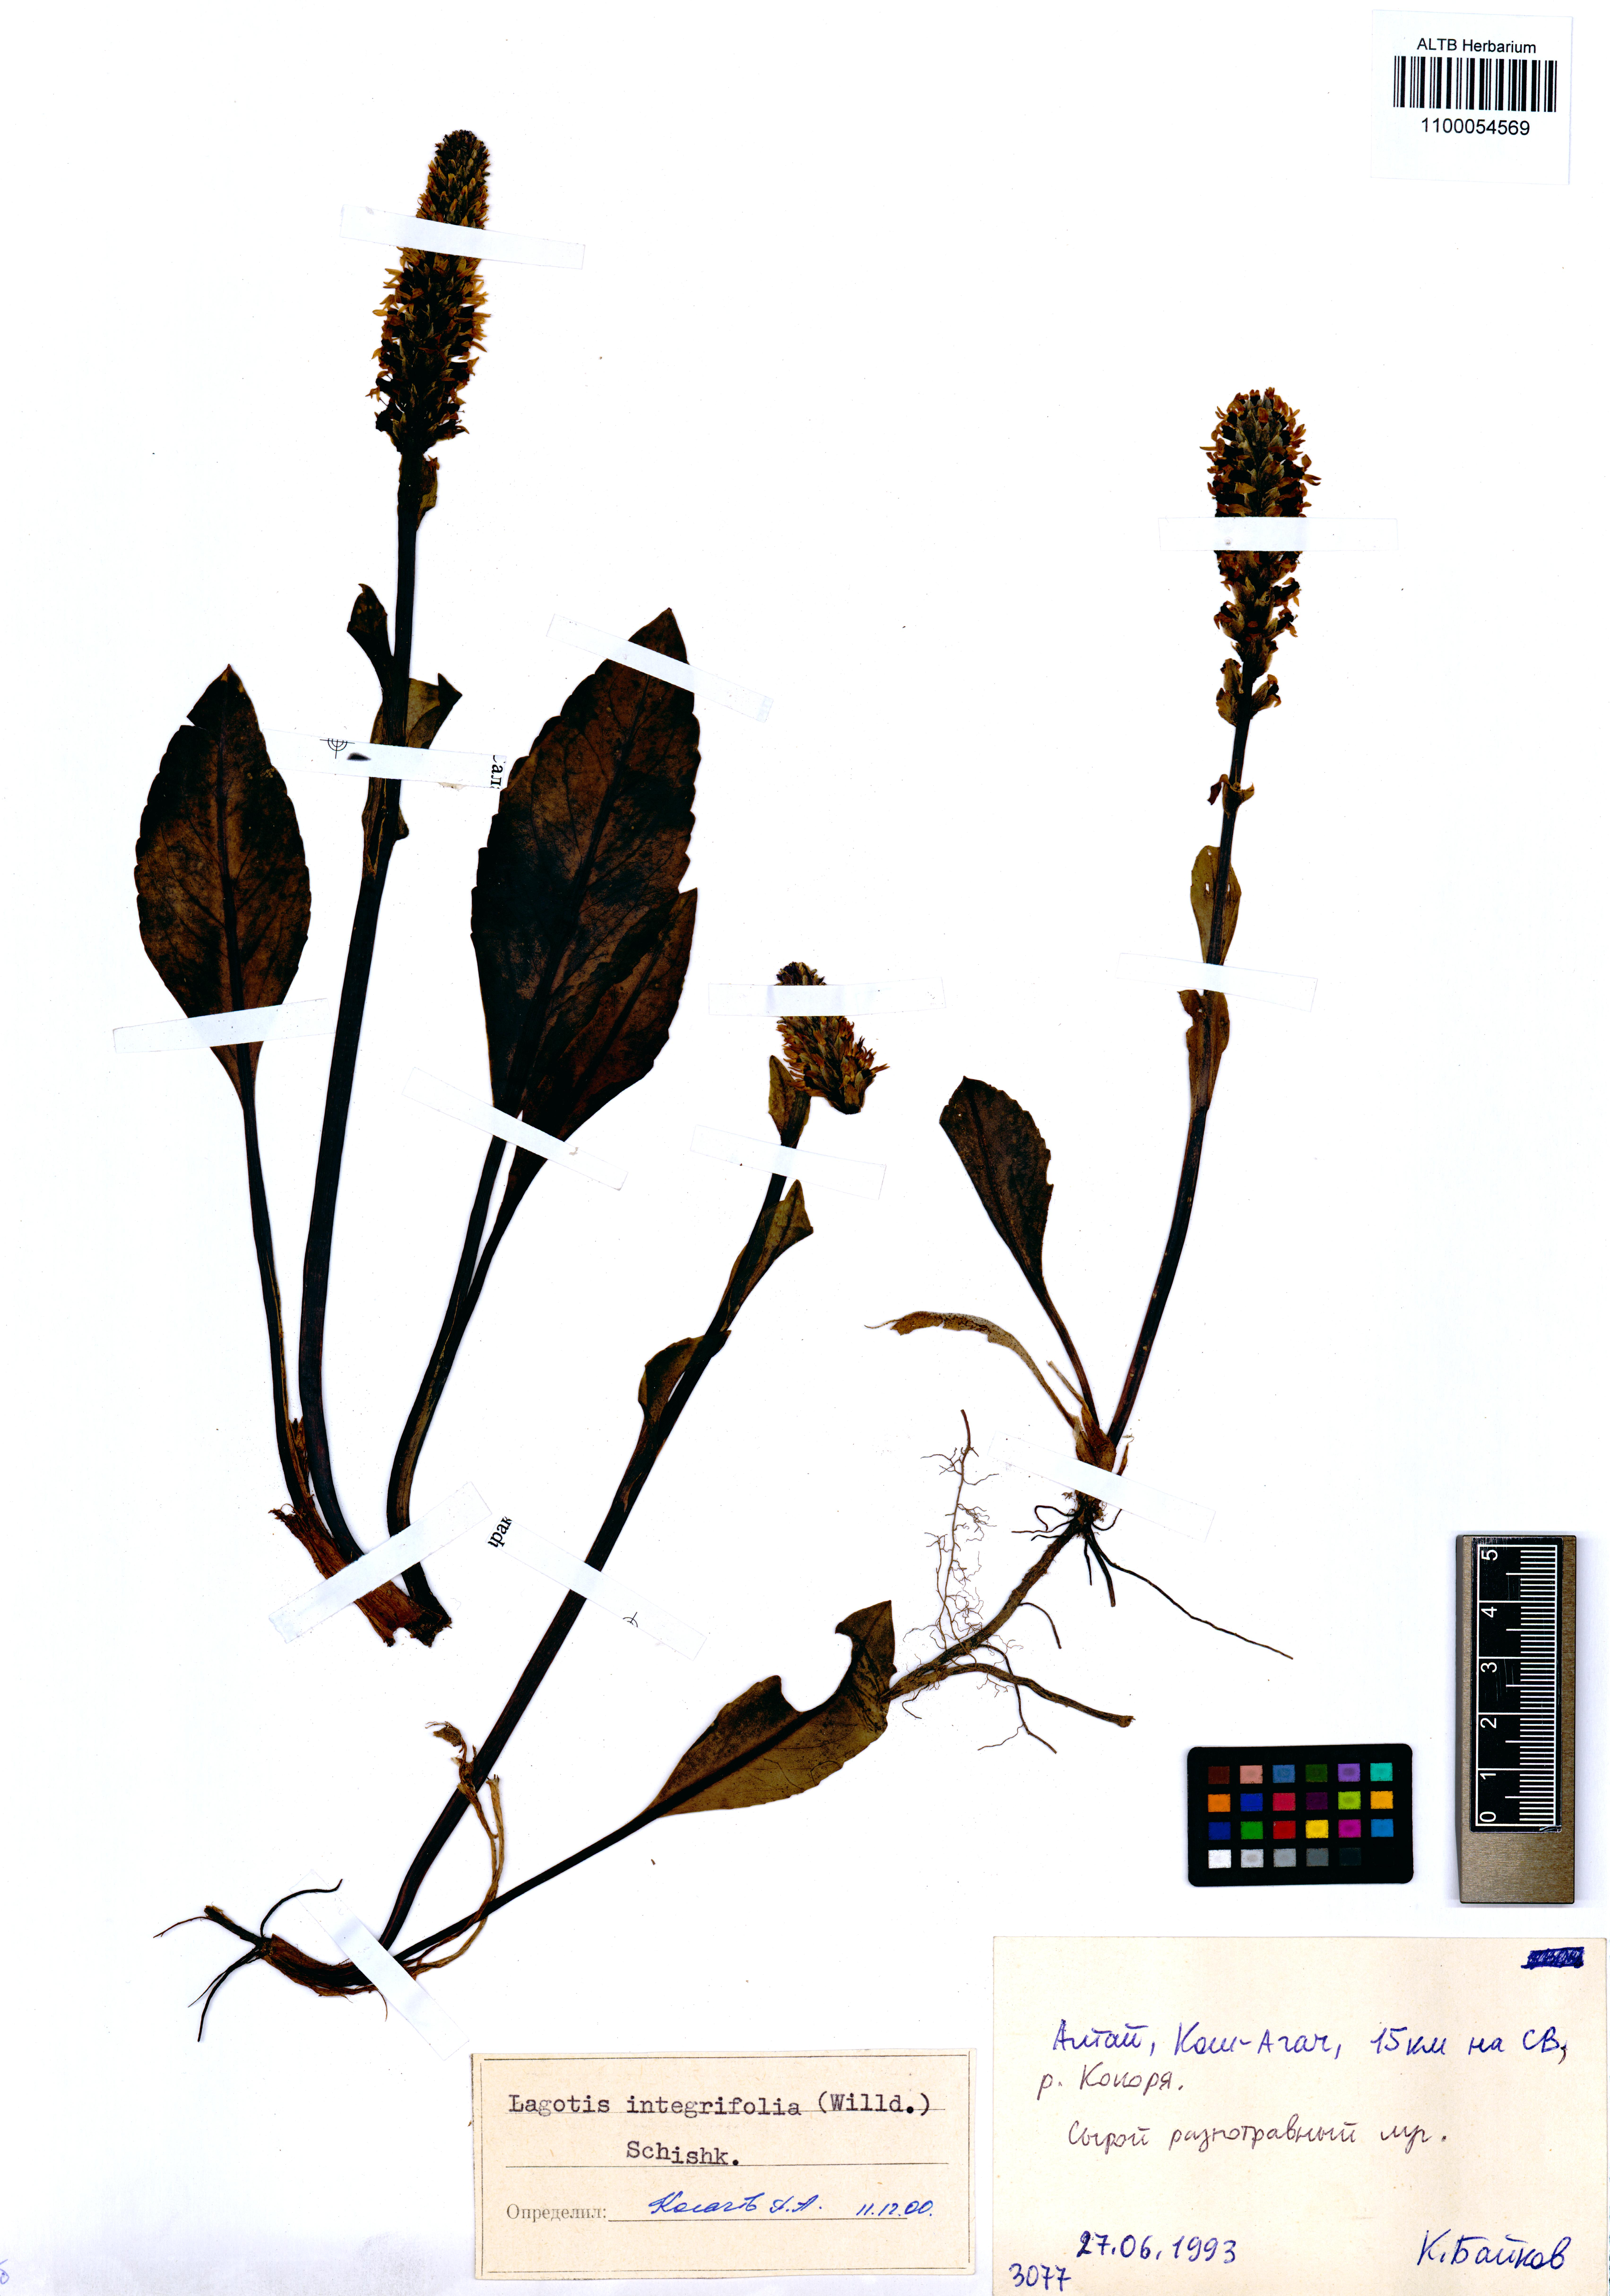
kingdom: Plantae
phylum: Tracheophyta
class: Magnoliopsida
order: Lamiales
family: Plantaginaceae
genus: Lagotis
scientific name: Lagotis integrifolia
